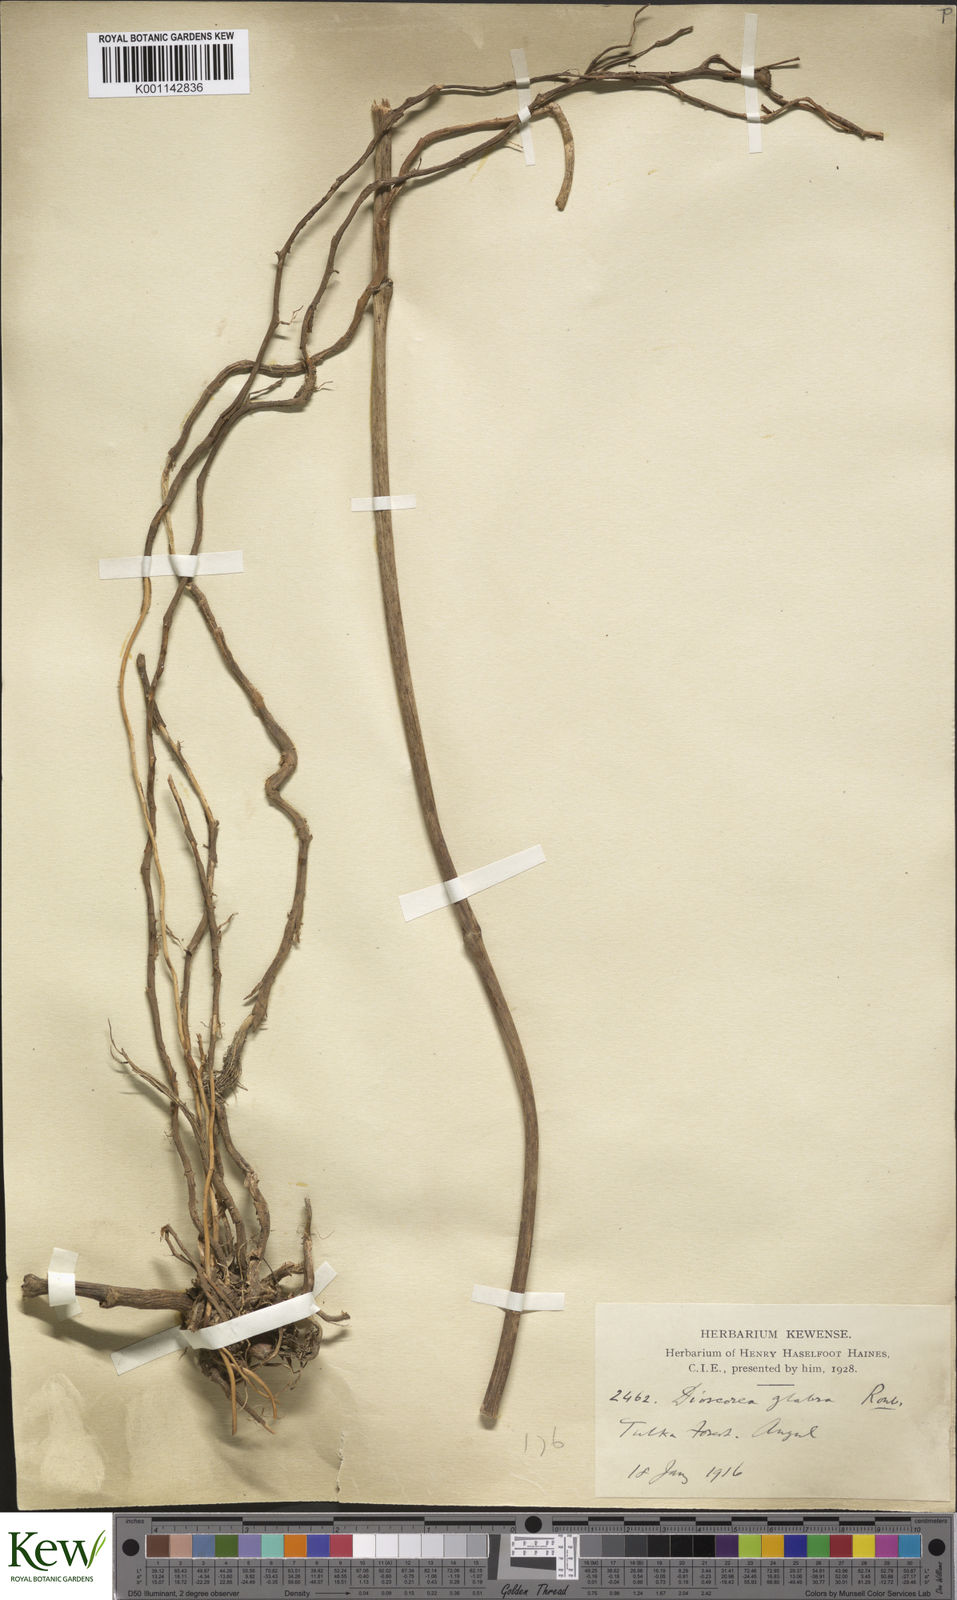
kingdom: Plantae
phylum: Tracheophyta
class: Liliopsida
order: Dioscoreales
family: Dioscoreaceae
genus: Dioscorea
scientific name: Dioscorea glabra
